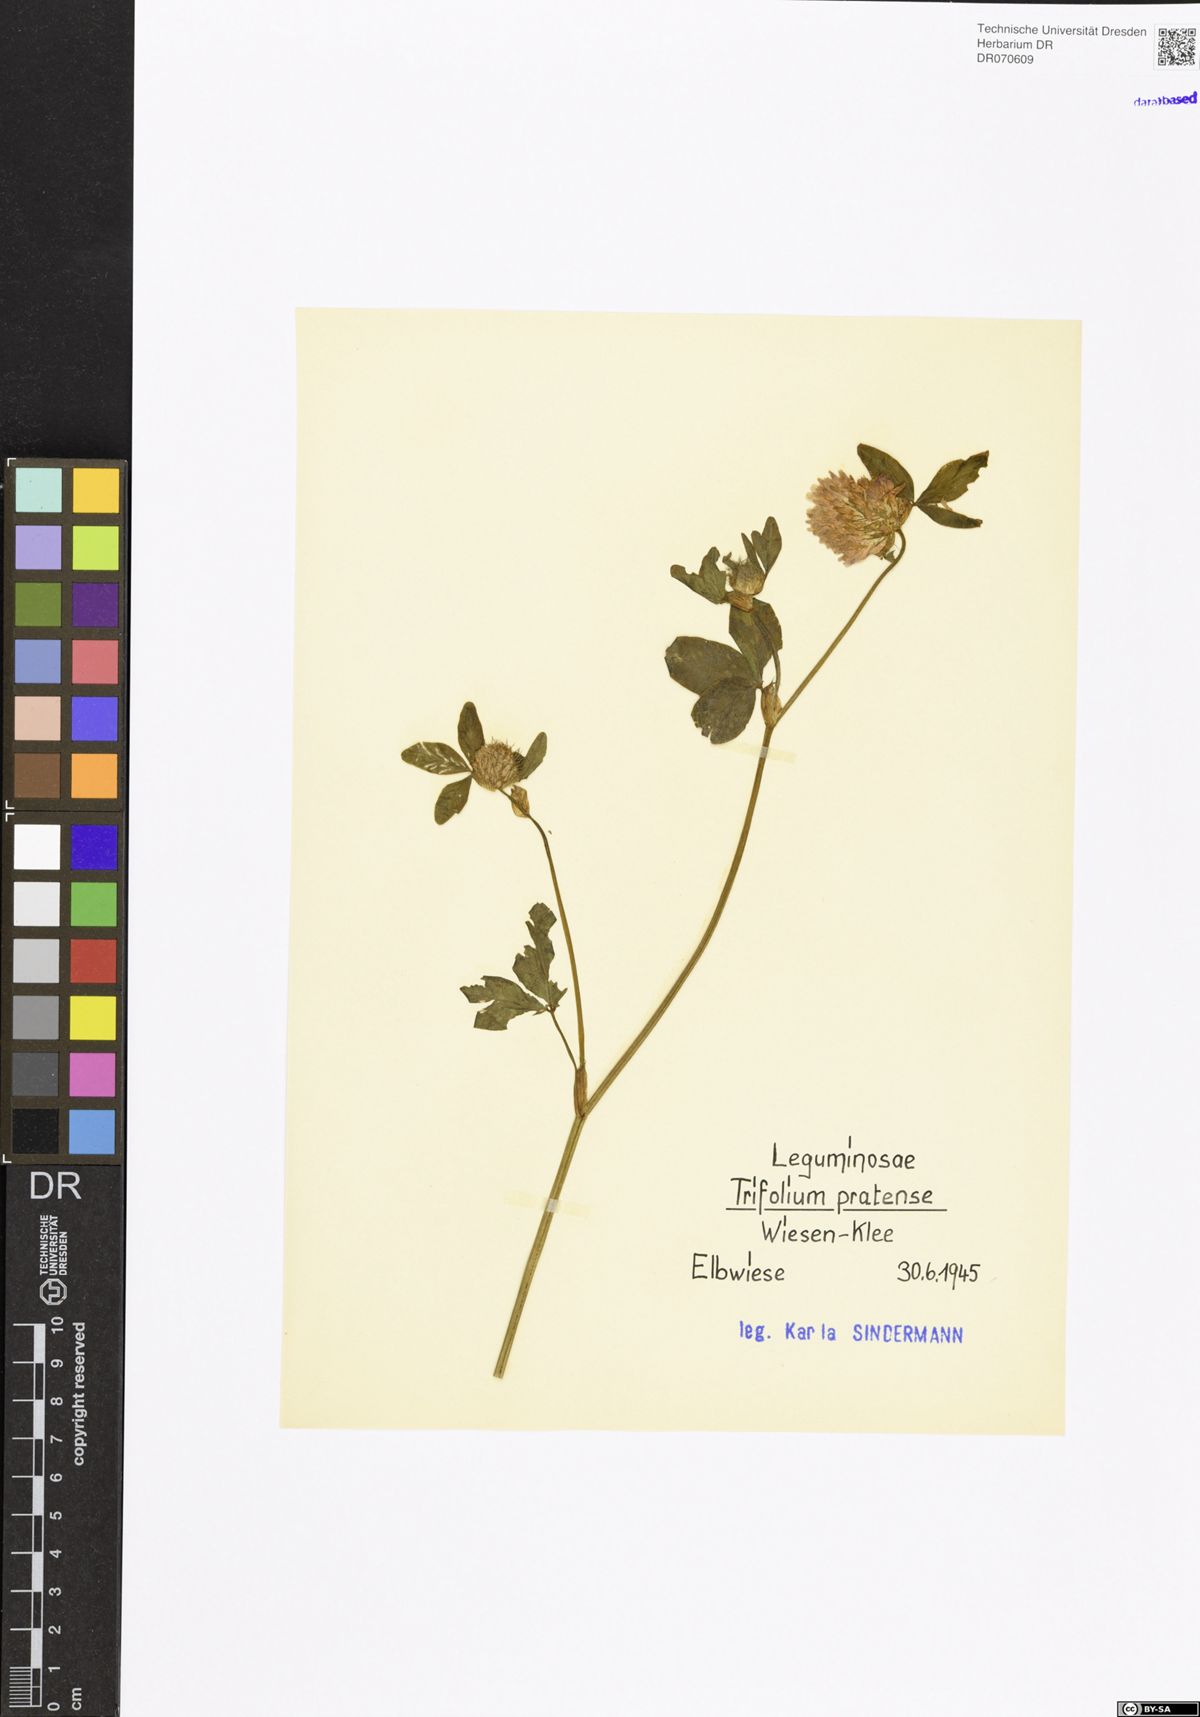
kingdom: Plantae
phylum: Tracheophyta
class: Magnoliopsida
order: Fabales
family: Fabaceae
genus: Trifolium
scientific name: Trifolium pratense
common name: Red clover
